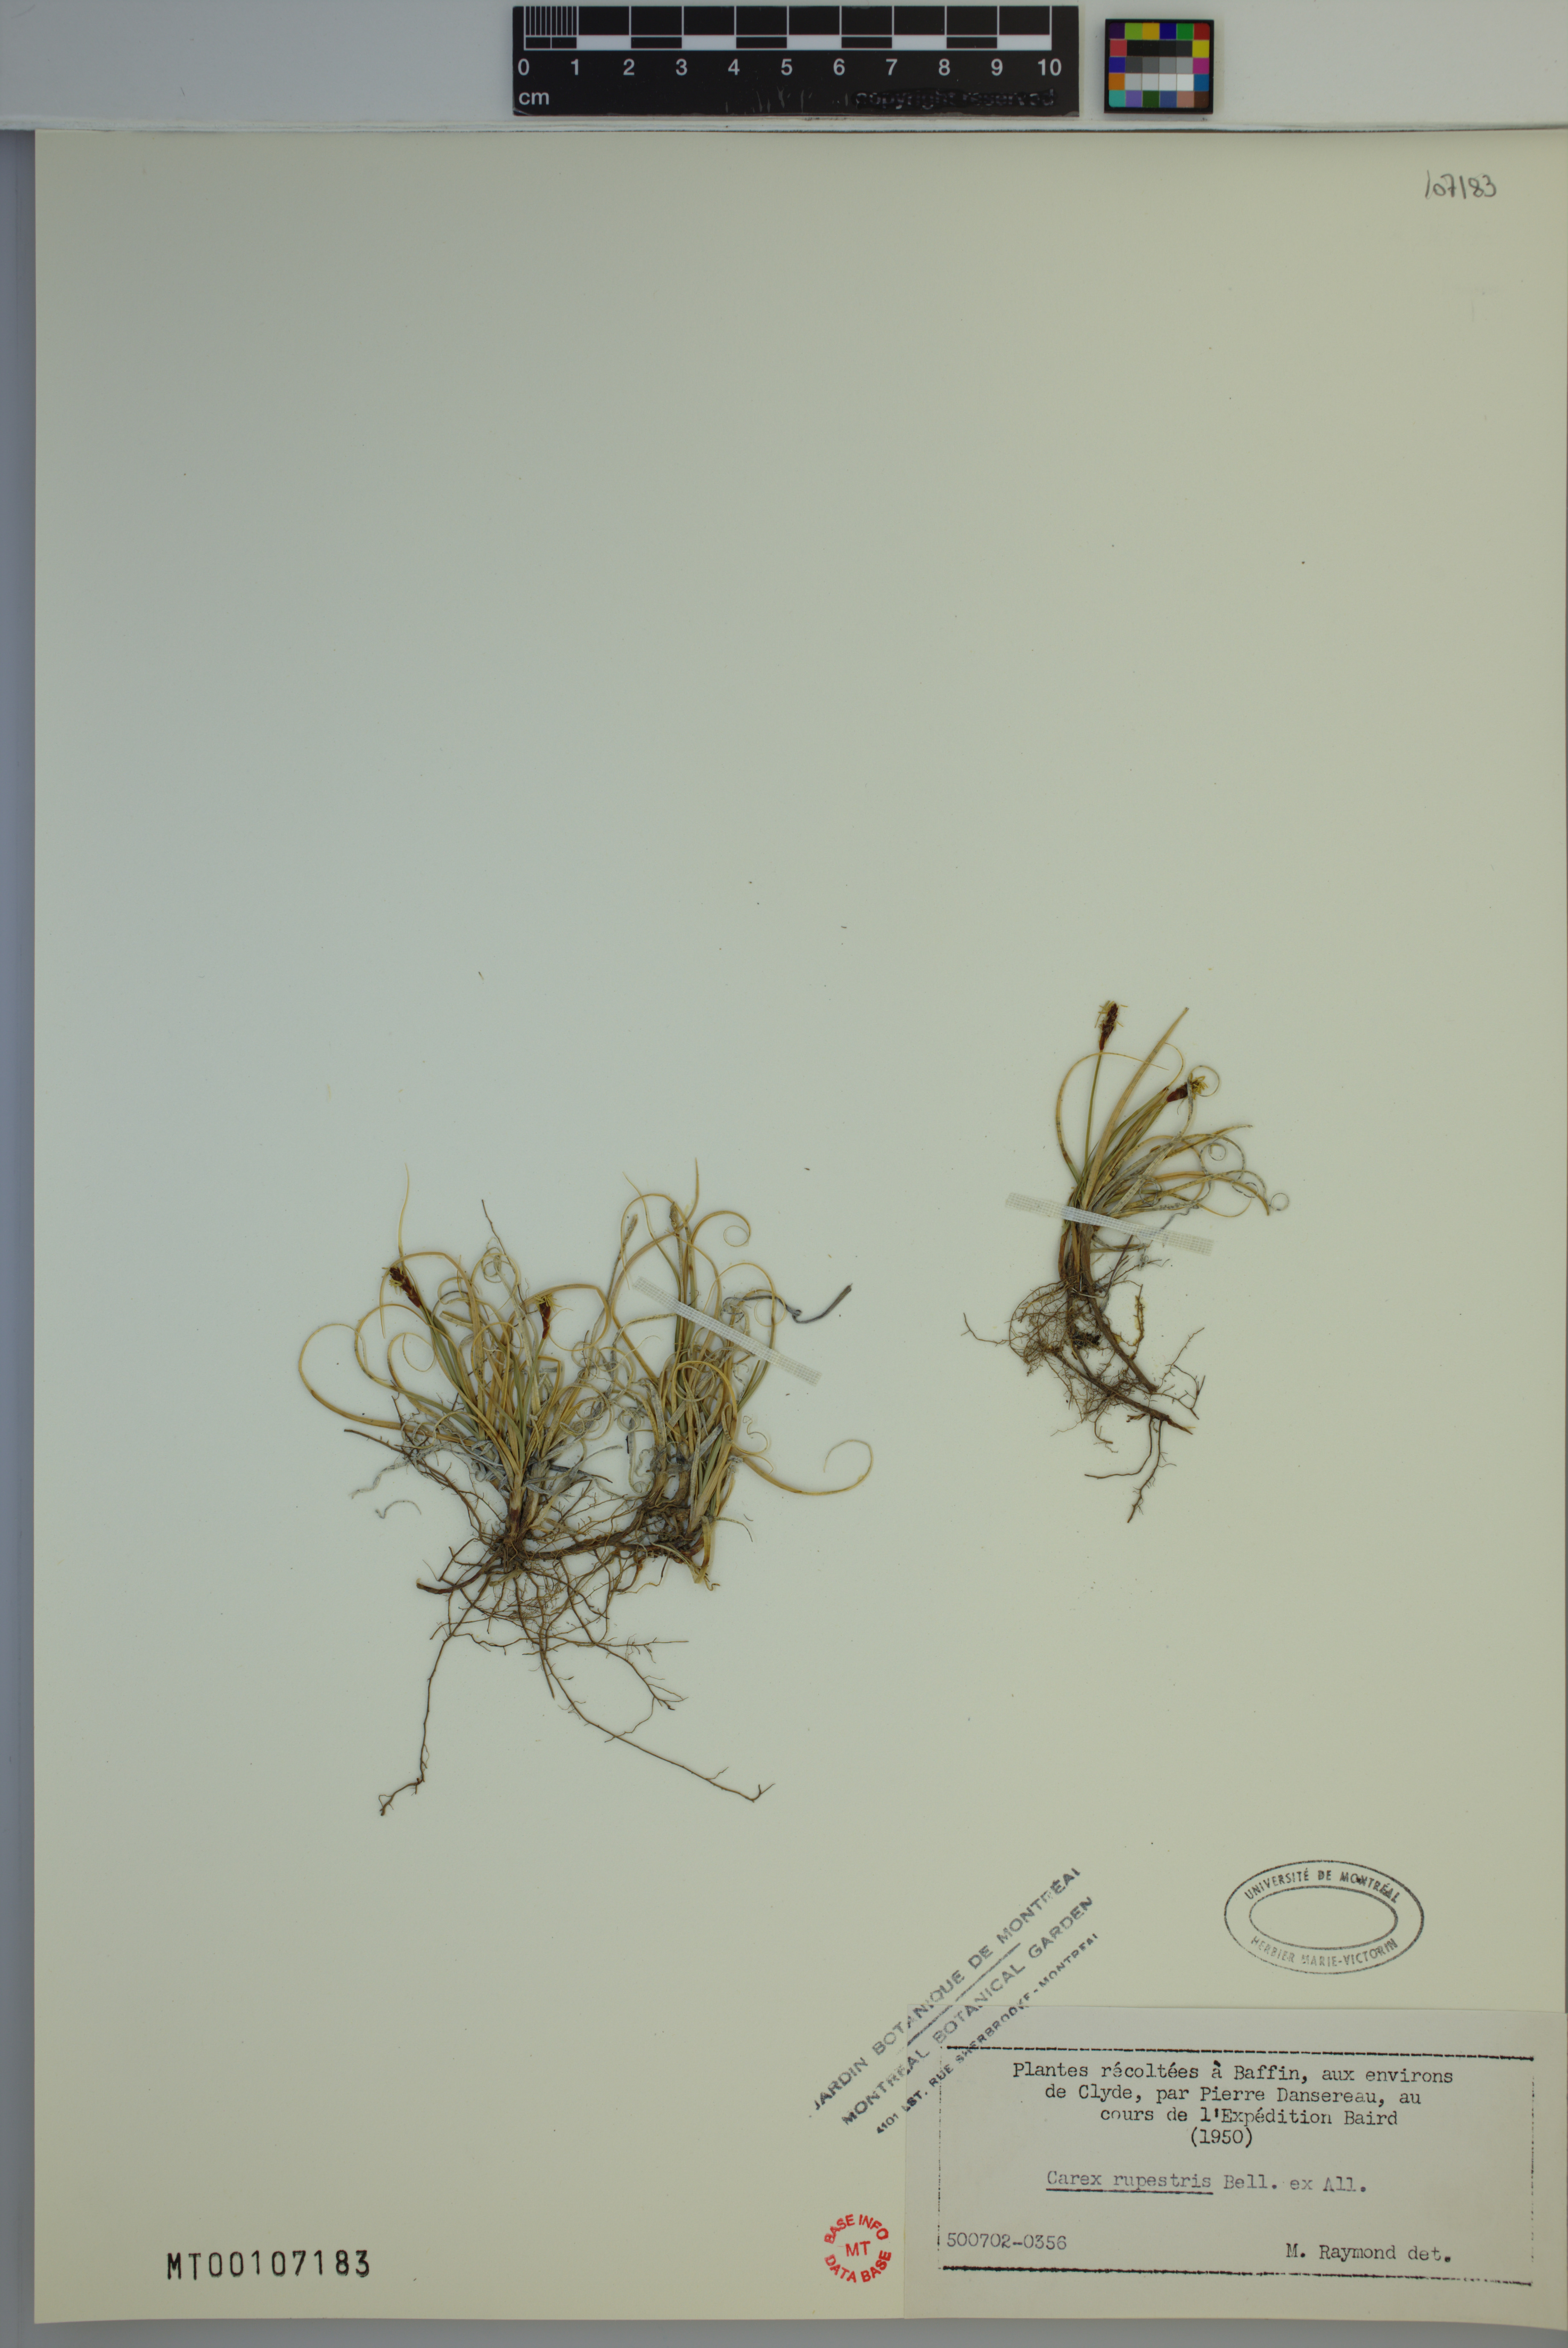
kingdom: Plantae
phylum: Tracheophyta
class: Liliopsida
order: Poales
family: Cyperaceae
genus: Carex
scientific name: Carex rupestris
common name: Rock sedge
